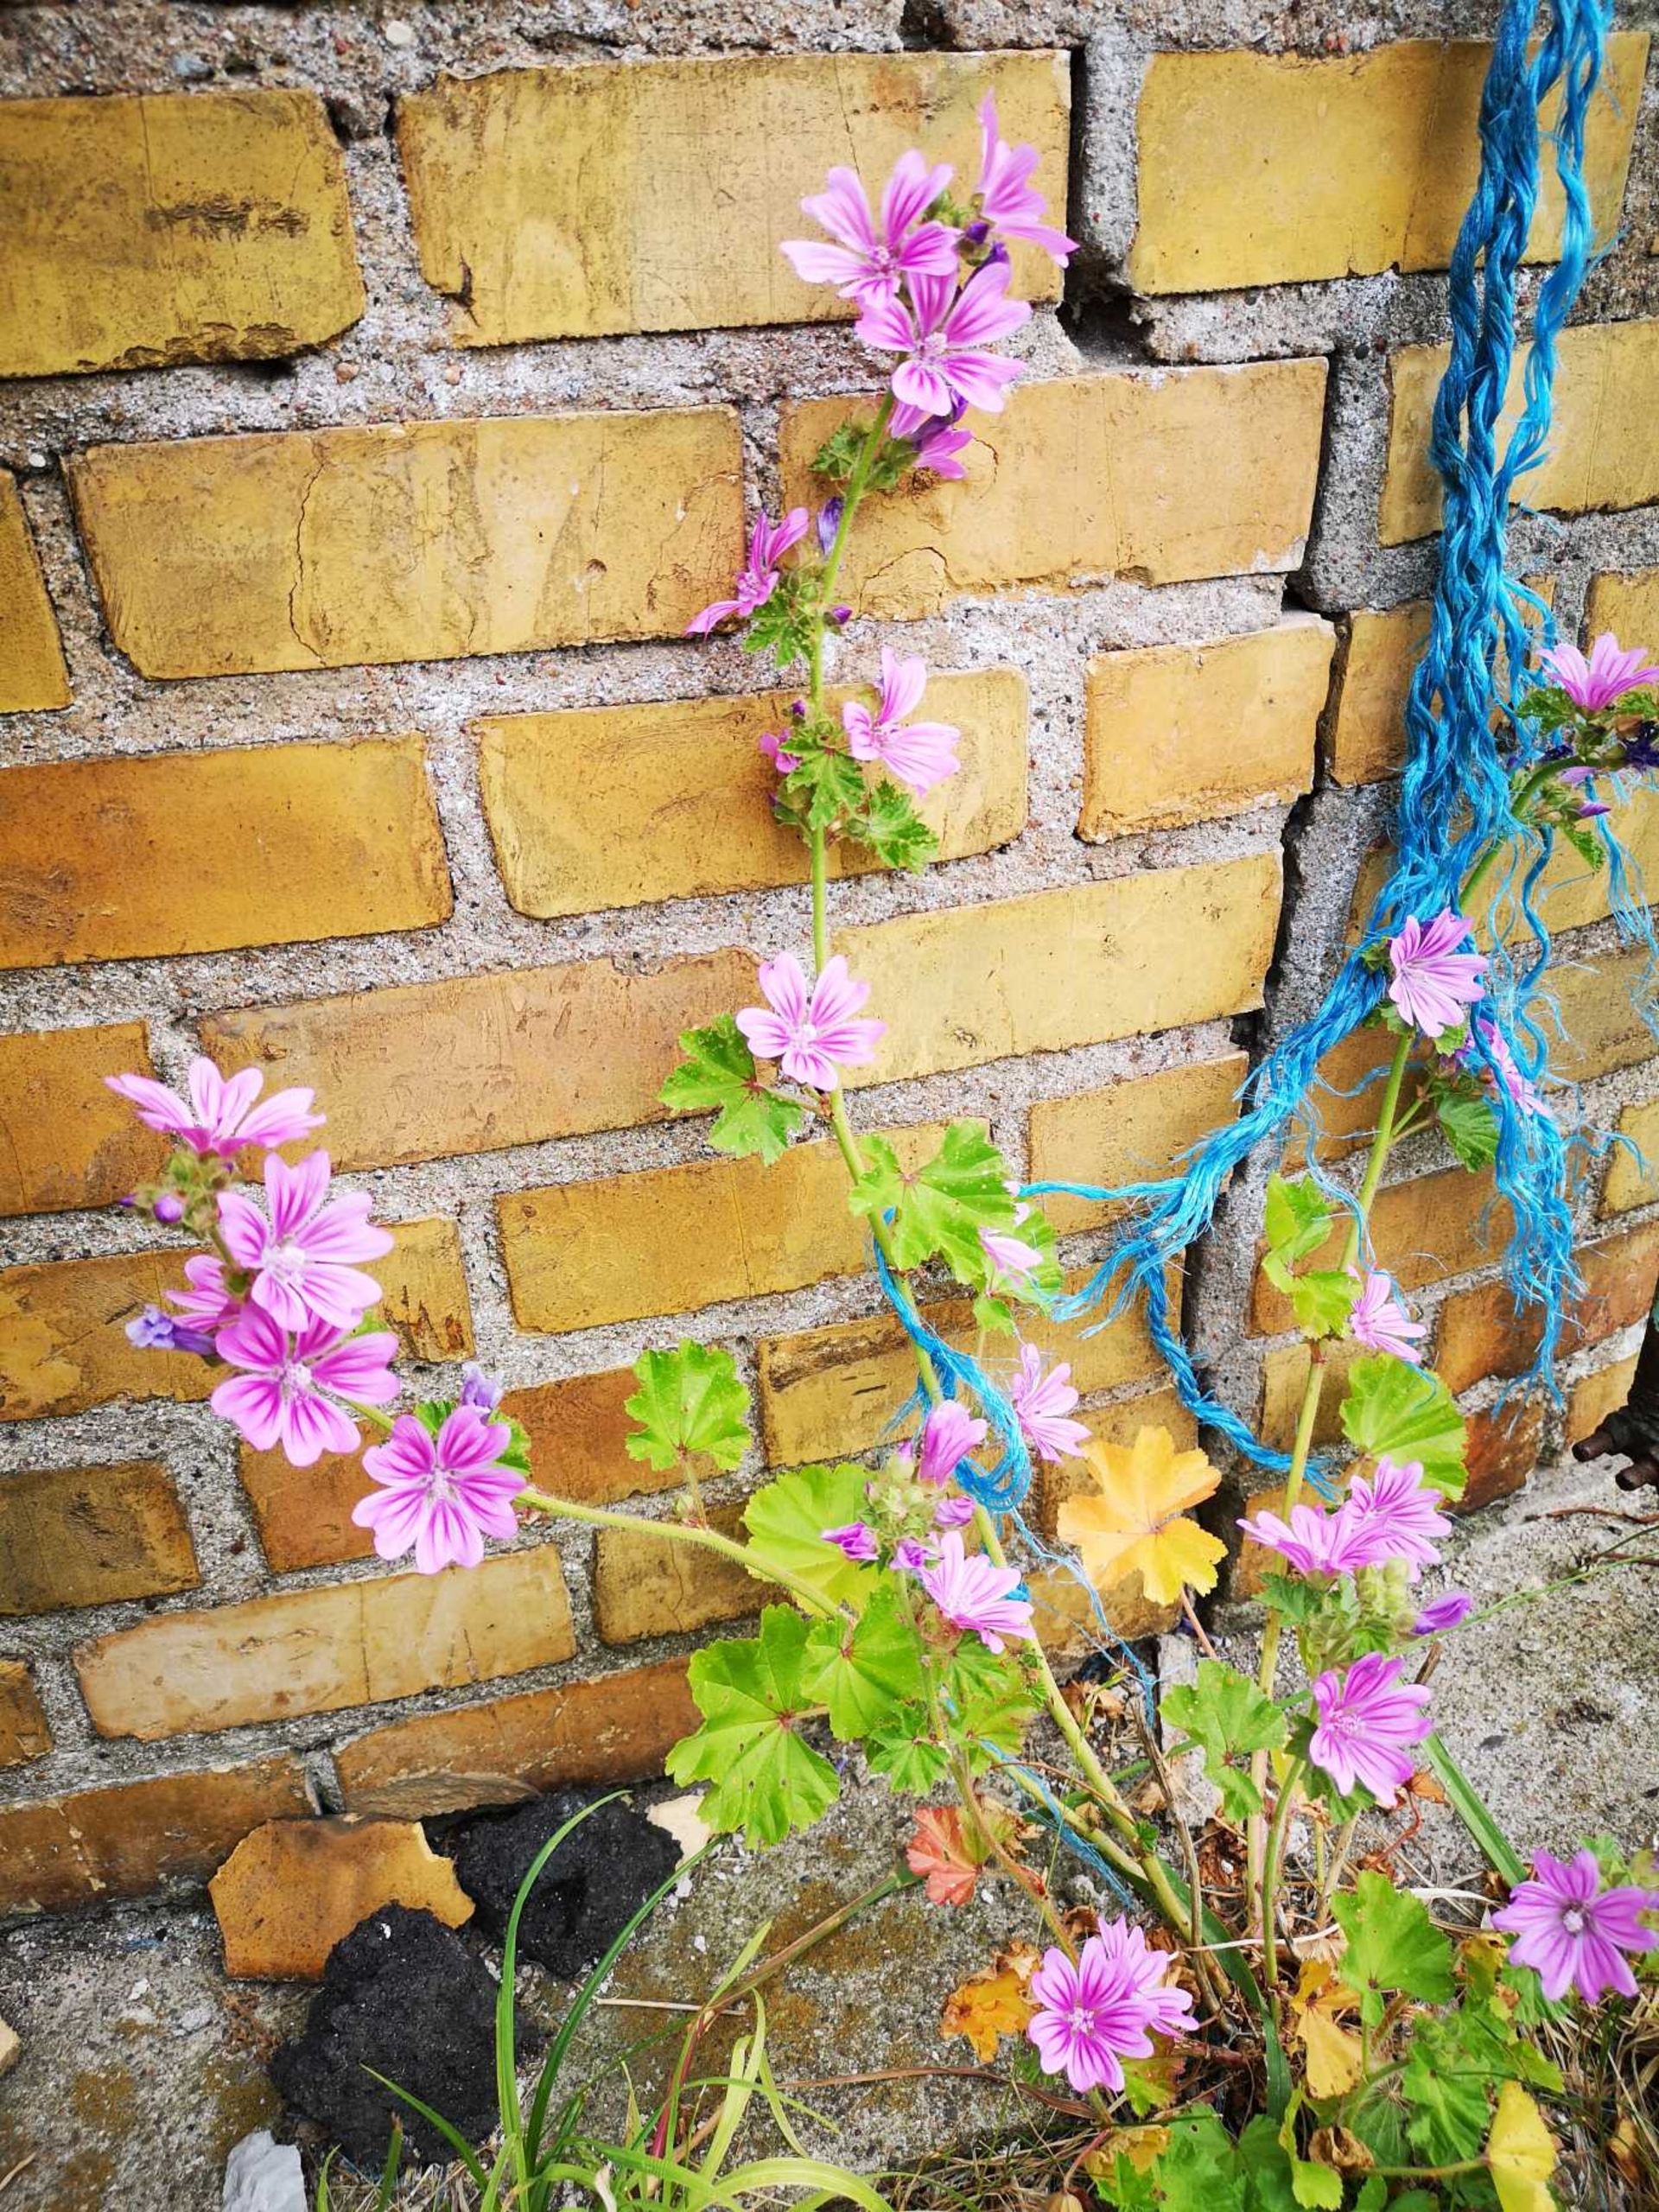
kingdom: Plantae
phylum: Tracheophyta
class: Magnoliopsida
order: Malvales
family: Malvaceae
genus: Malva
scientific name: Malva sylvestris
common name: Almindelig katost
